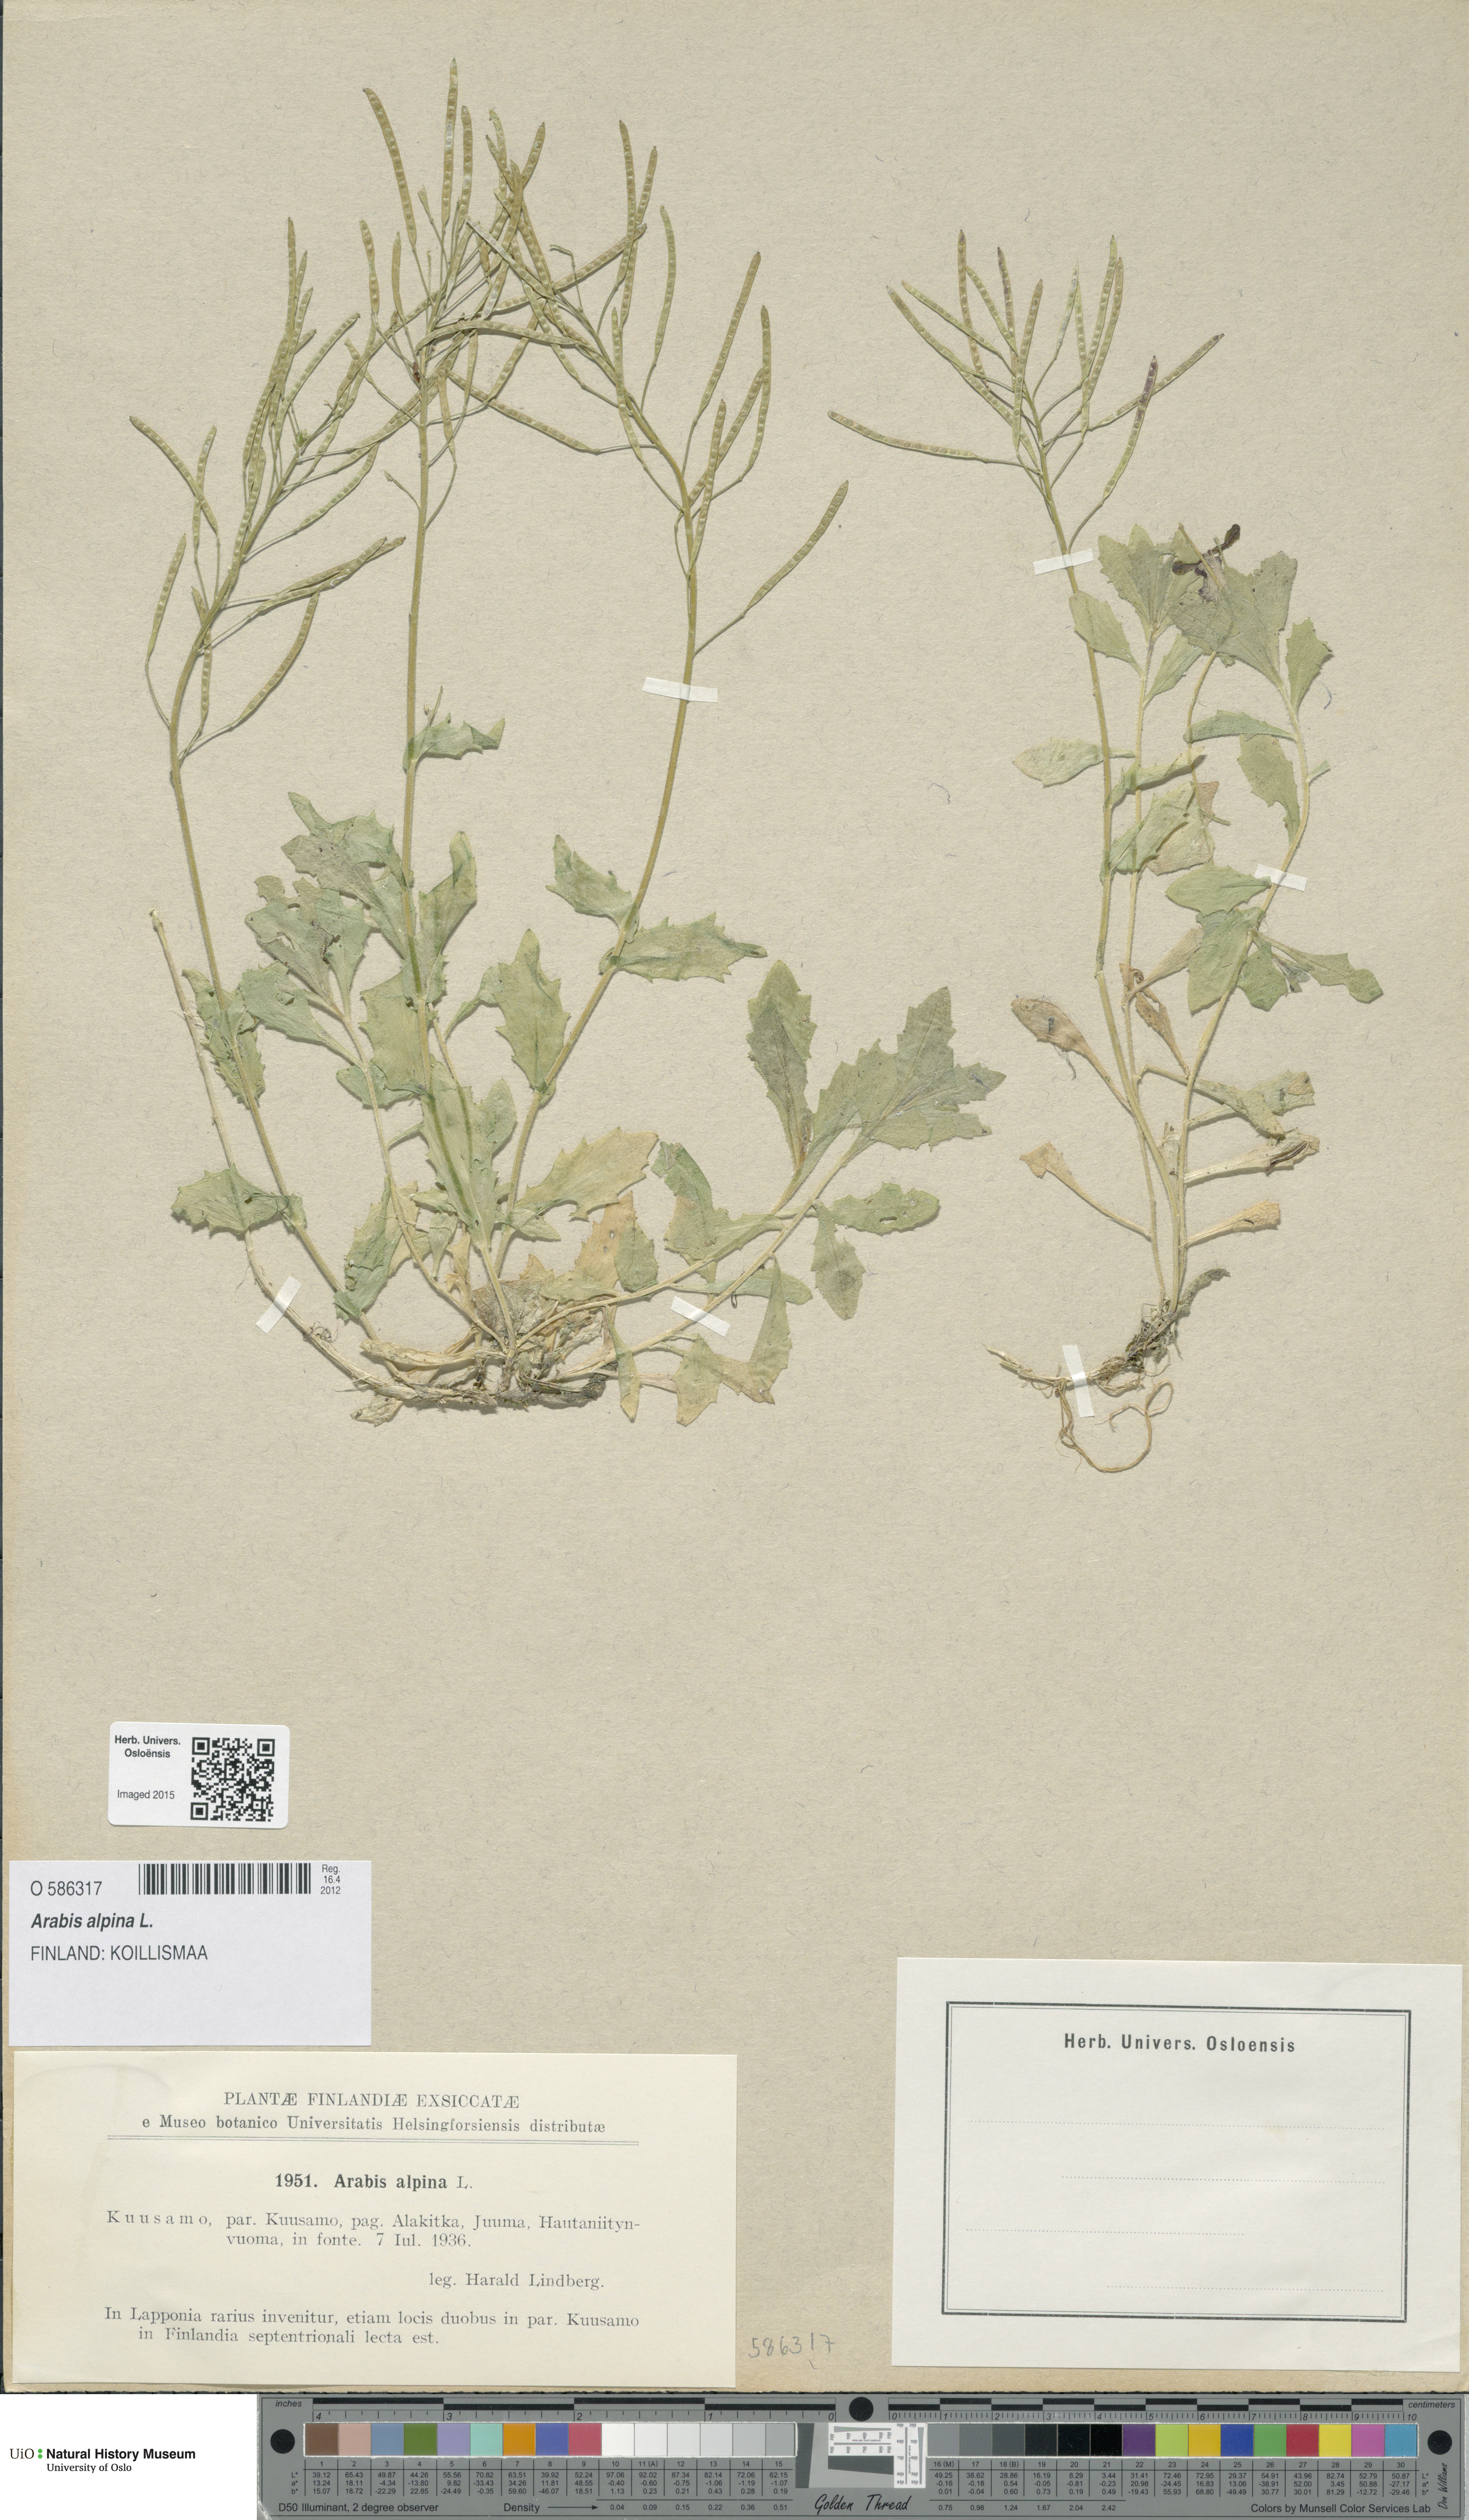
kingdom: Plantae
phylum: Tracheophyta
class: Magnoliopsida
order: Brassicales
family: Brassicaceae
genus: Arabis
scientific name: Arabis alpina
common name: Alpine rock-cress
